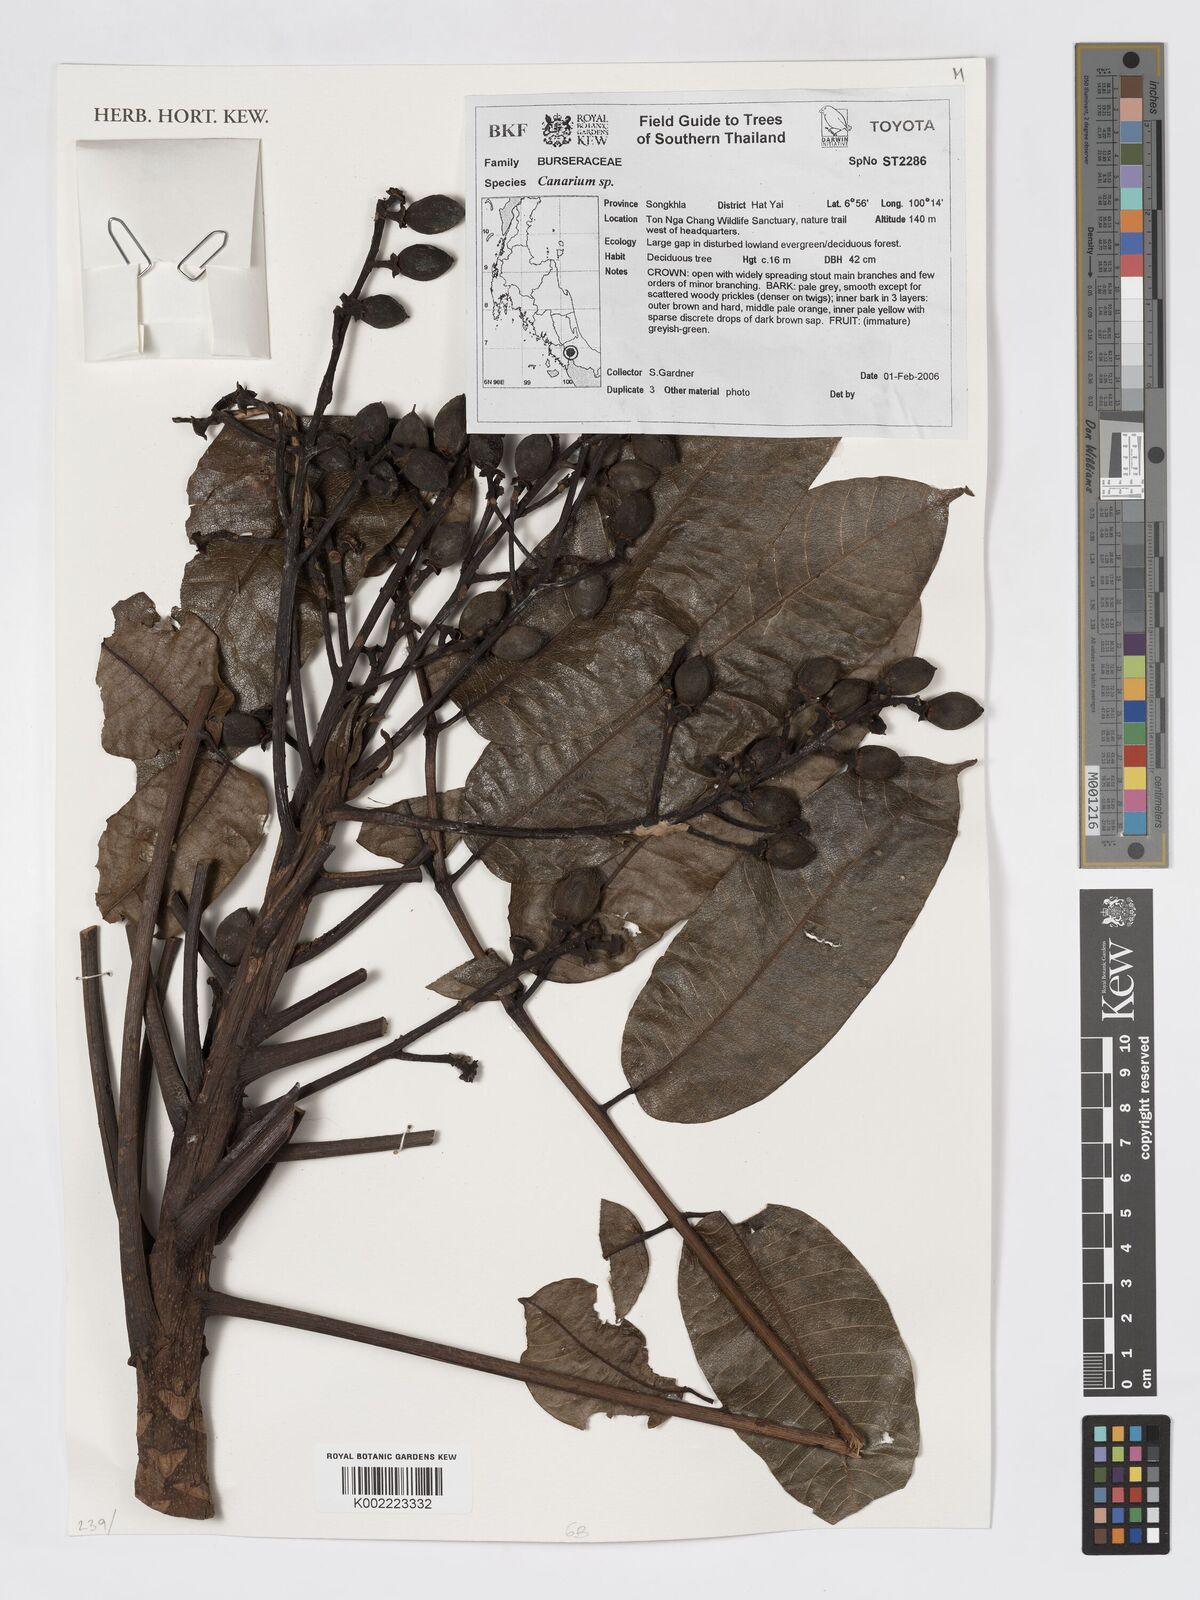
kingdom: Plantae
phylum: Tracheophyta
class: Magnoliopsida
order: Sapindales
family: Burseraceae
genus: Canarium
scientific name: Canarium
